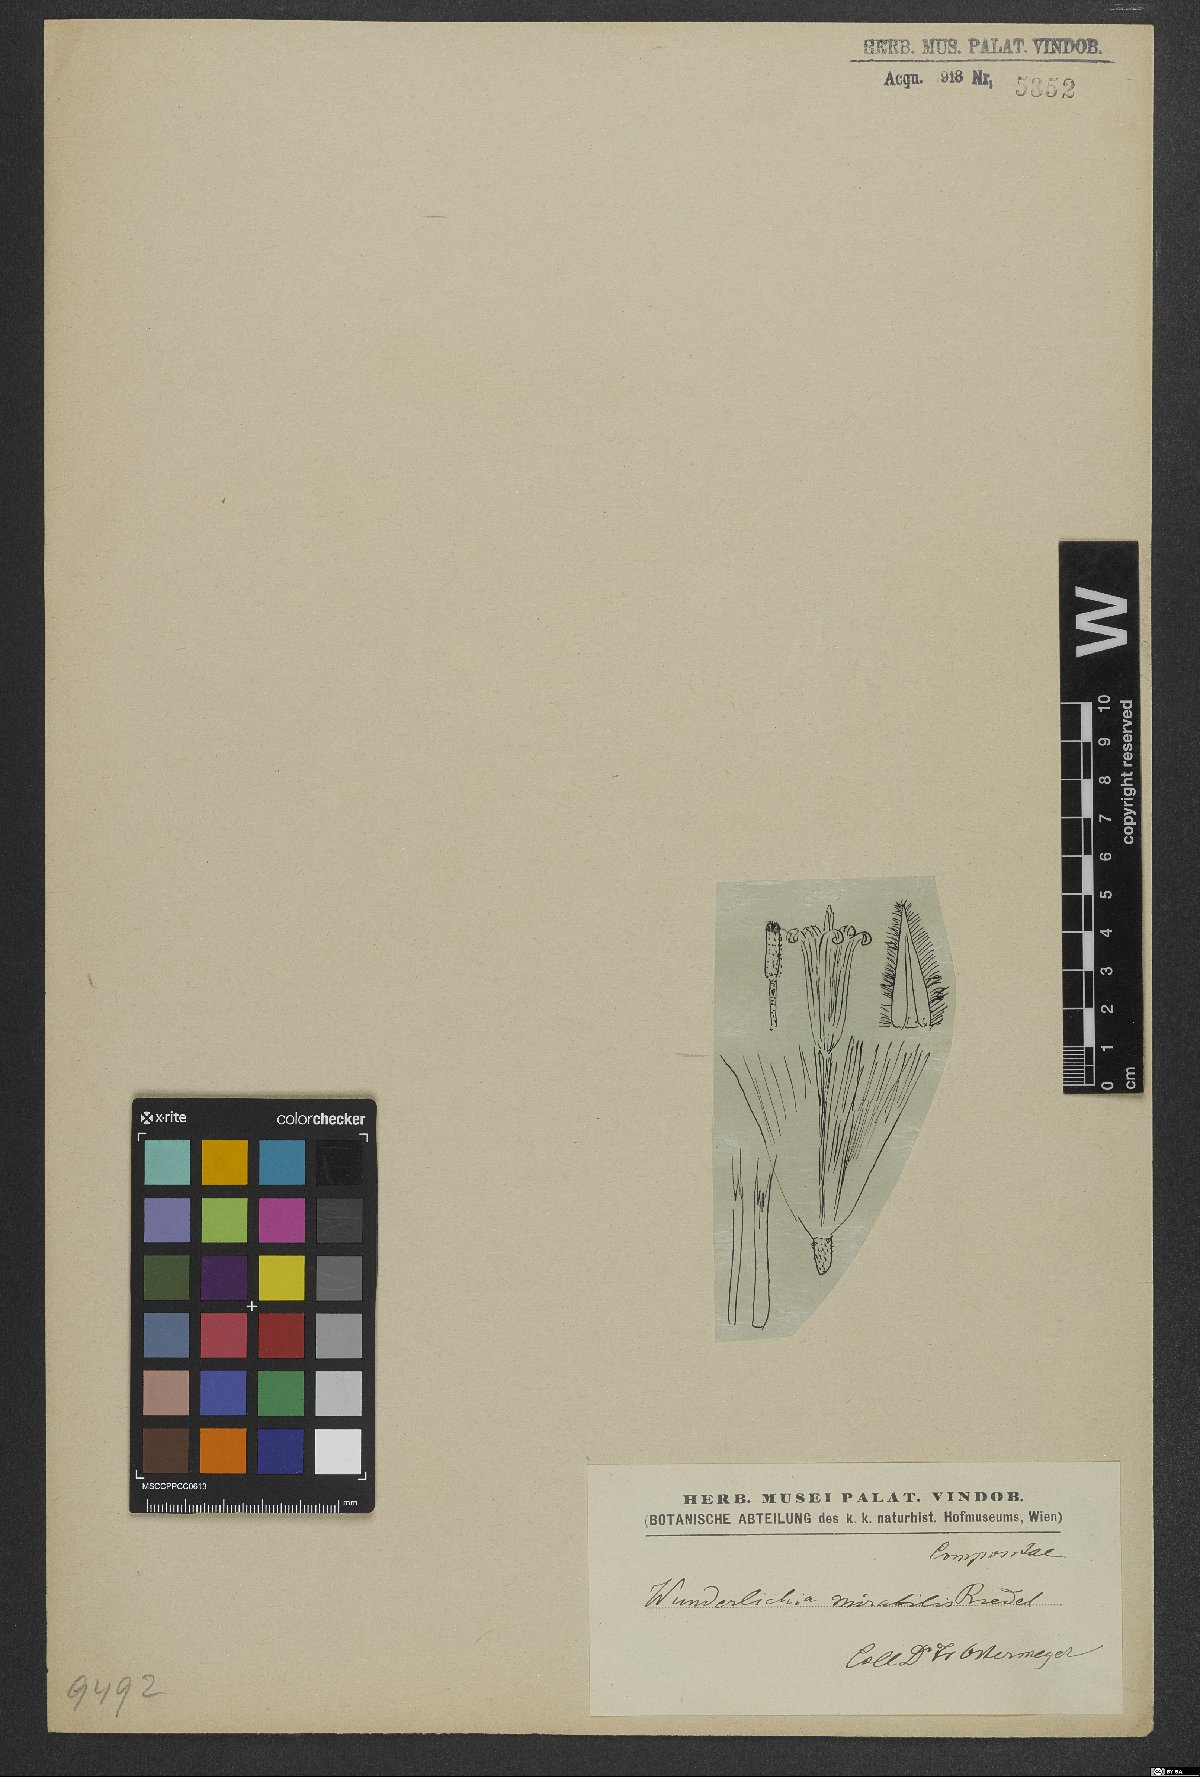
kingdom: Plantae
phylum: Tracheophyta
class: Magnoliopsida
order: Asterales
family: Asteraceae
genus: Wunderlichia
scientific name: Wunderlichia mirabilis
